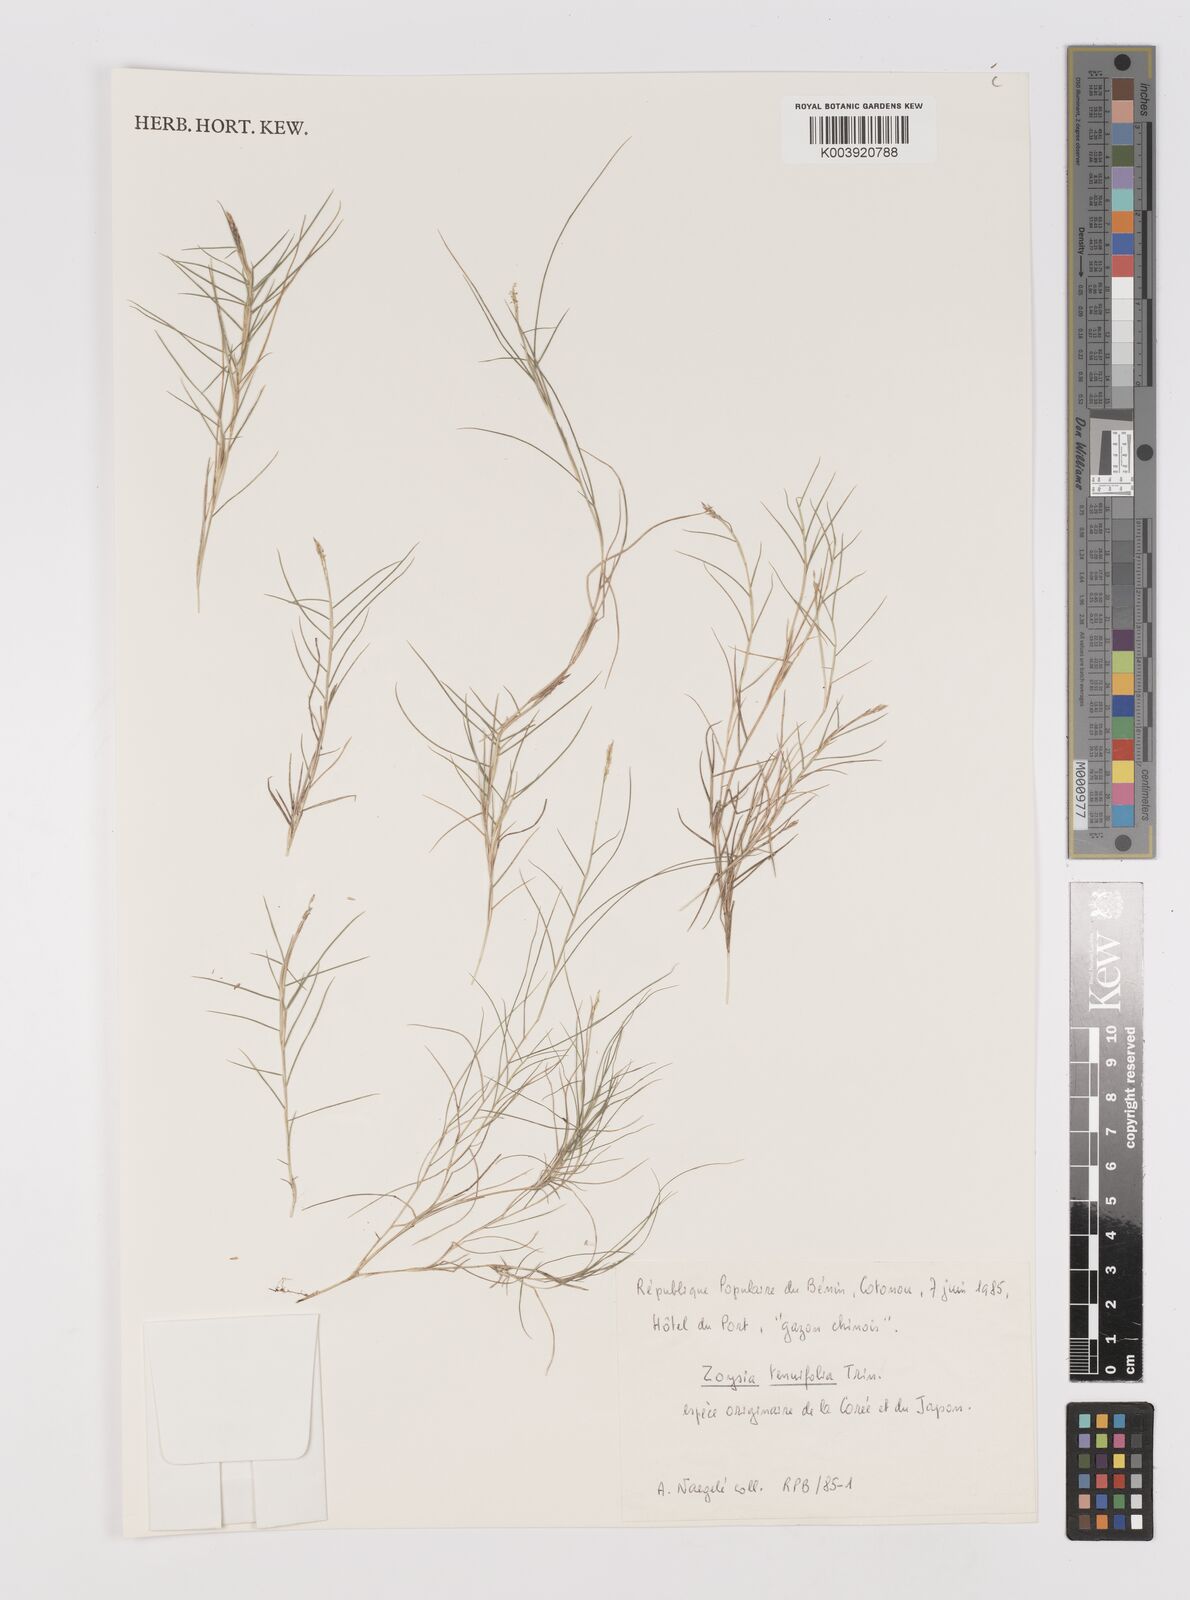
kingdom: Plantae
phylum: Tracheophyta
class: Liliopsida
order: Poales
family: Poaceae
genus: Zoysia
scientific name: Zoysia matrella
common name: Manila grass
